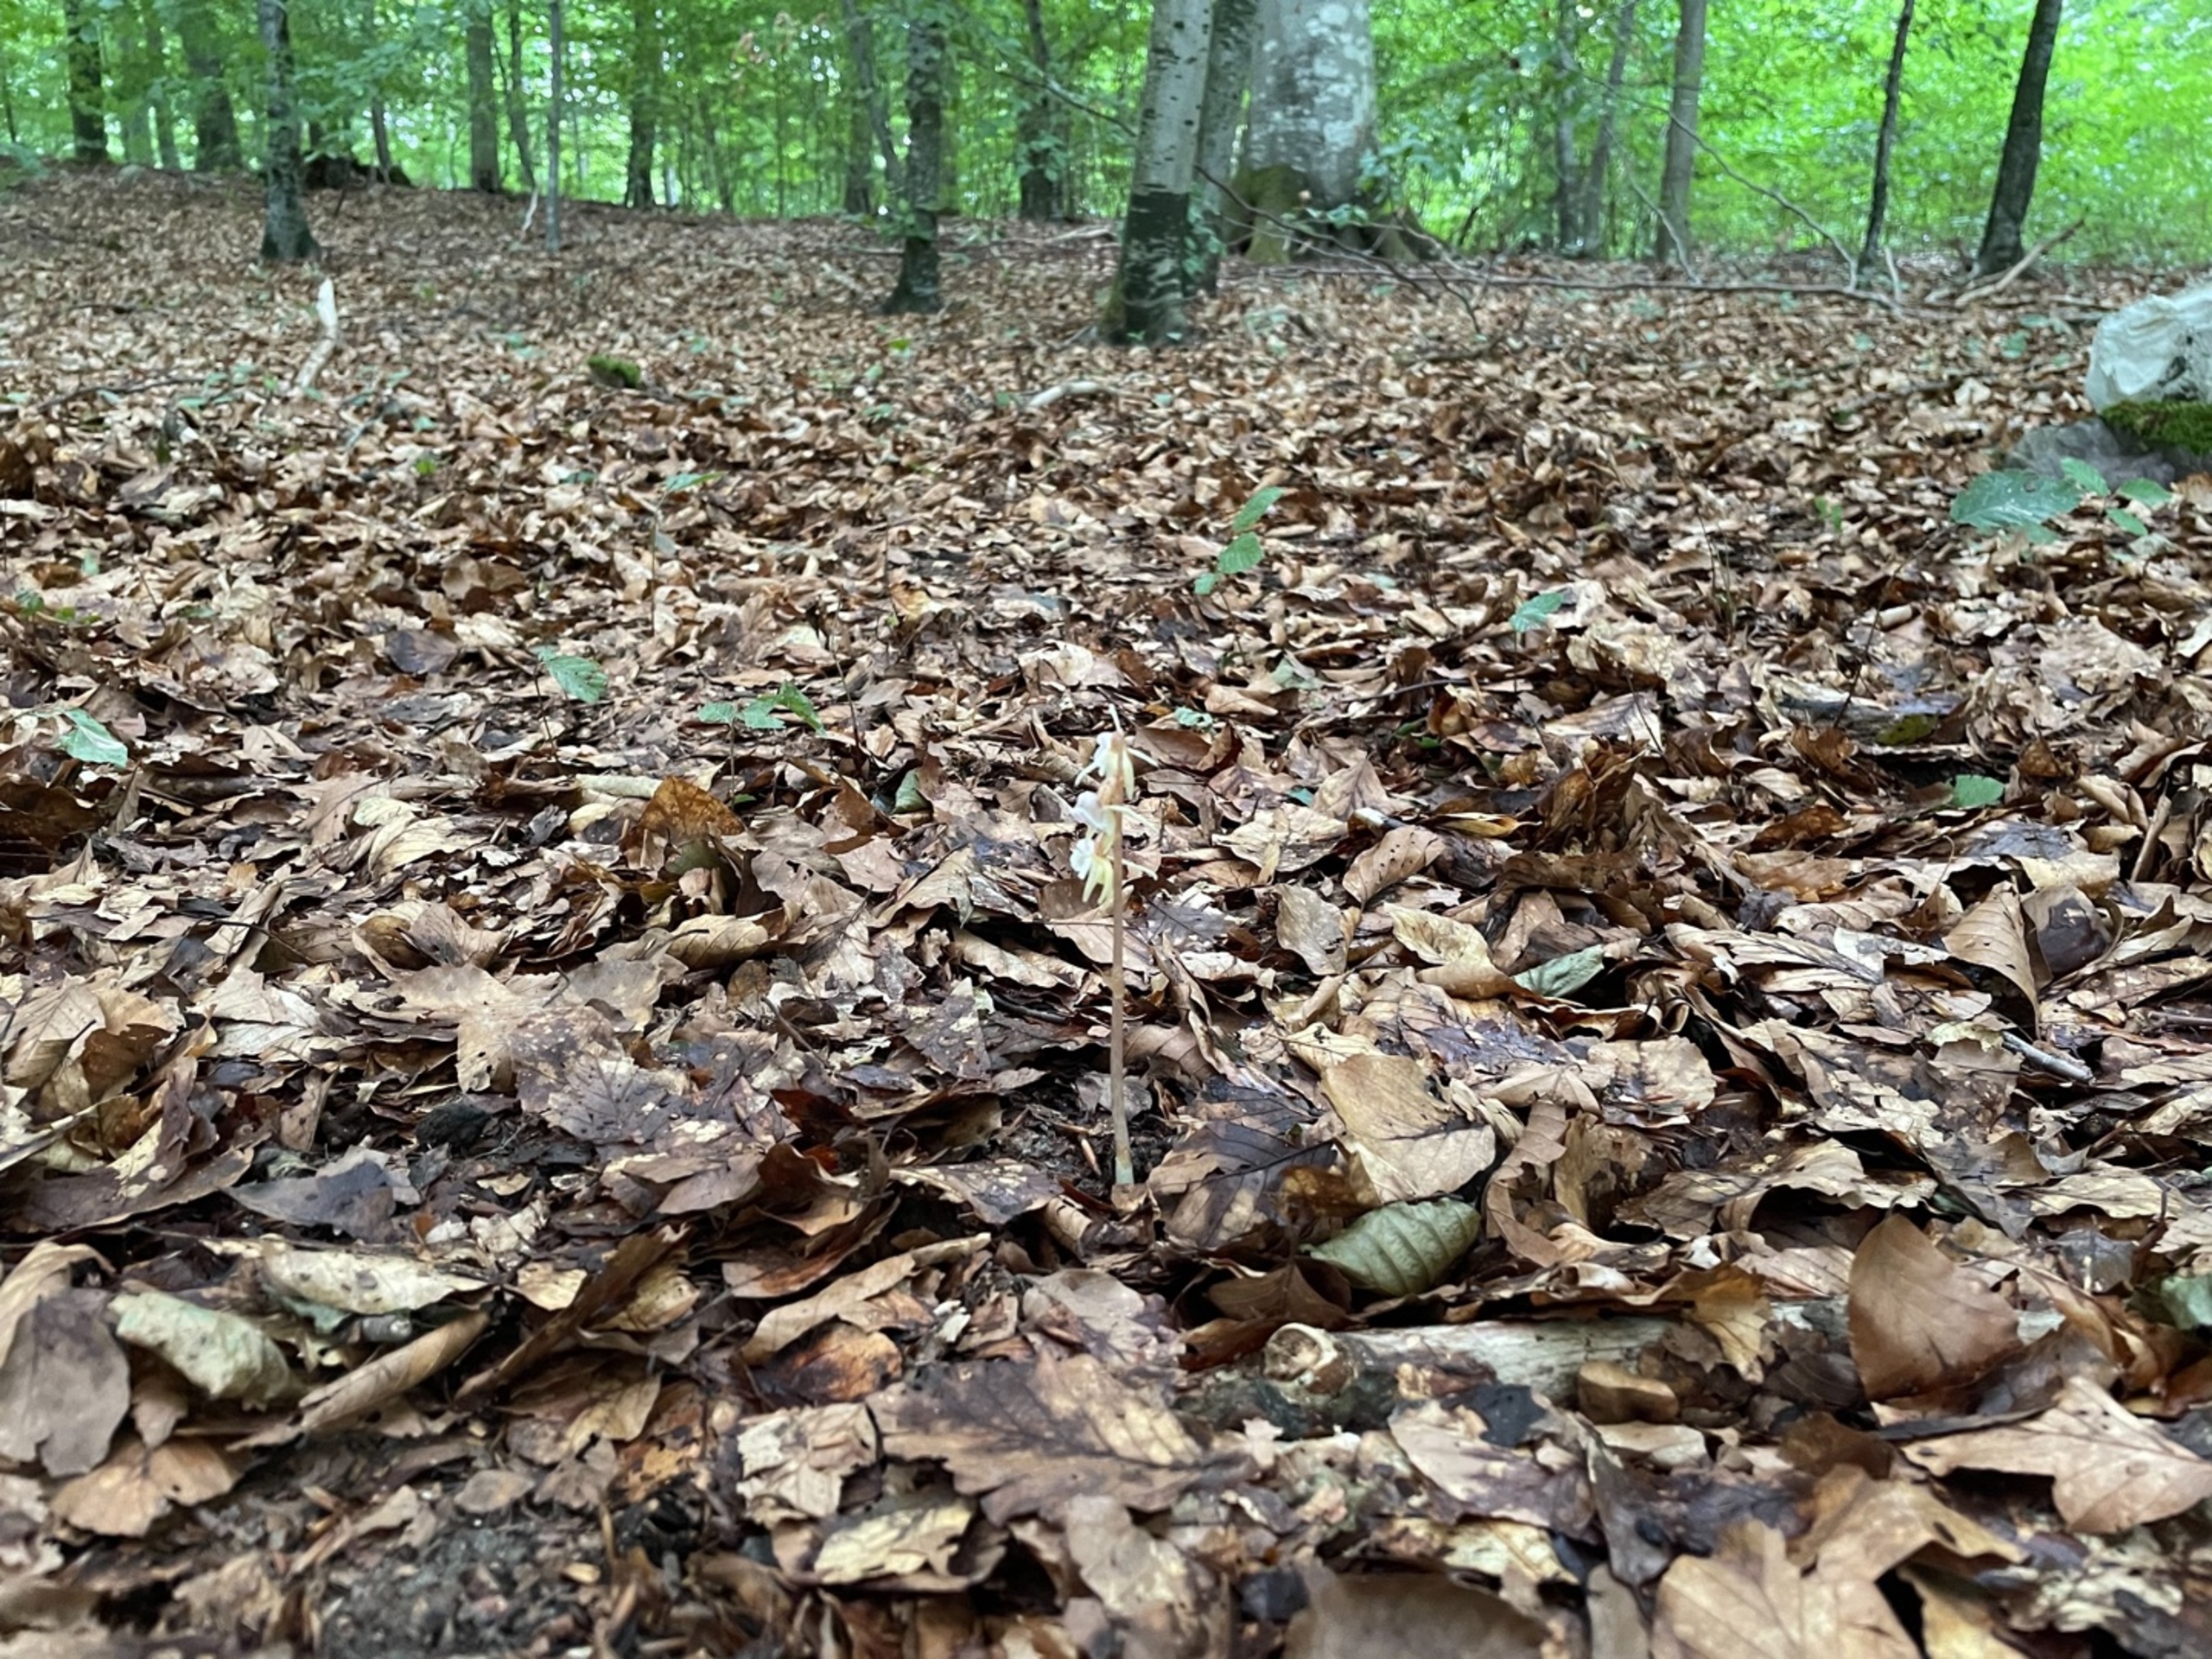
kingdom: Plantae
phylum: Tracheophyta
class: Liliopsida
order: Asparagales
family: Orchidaceae
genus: Epipogium
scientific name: Epipogium aphyllum
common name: Knælæbe
